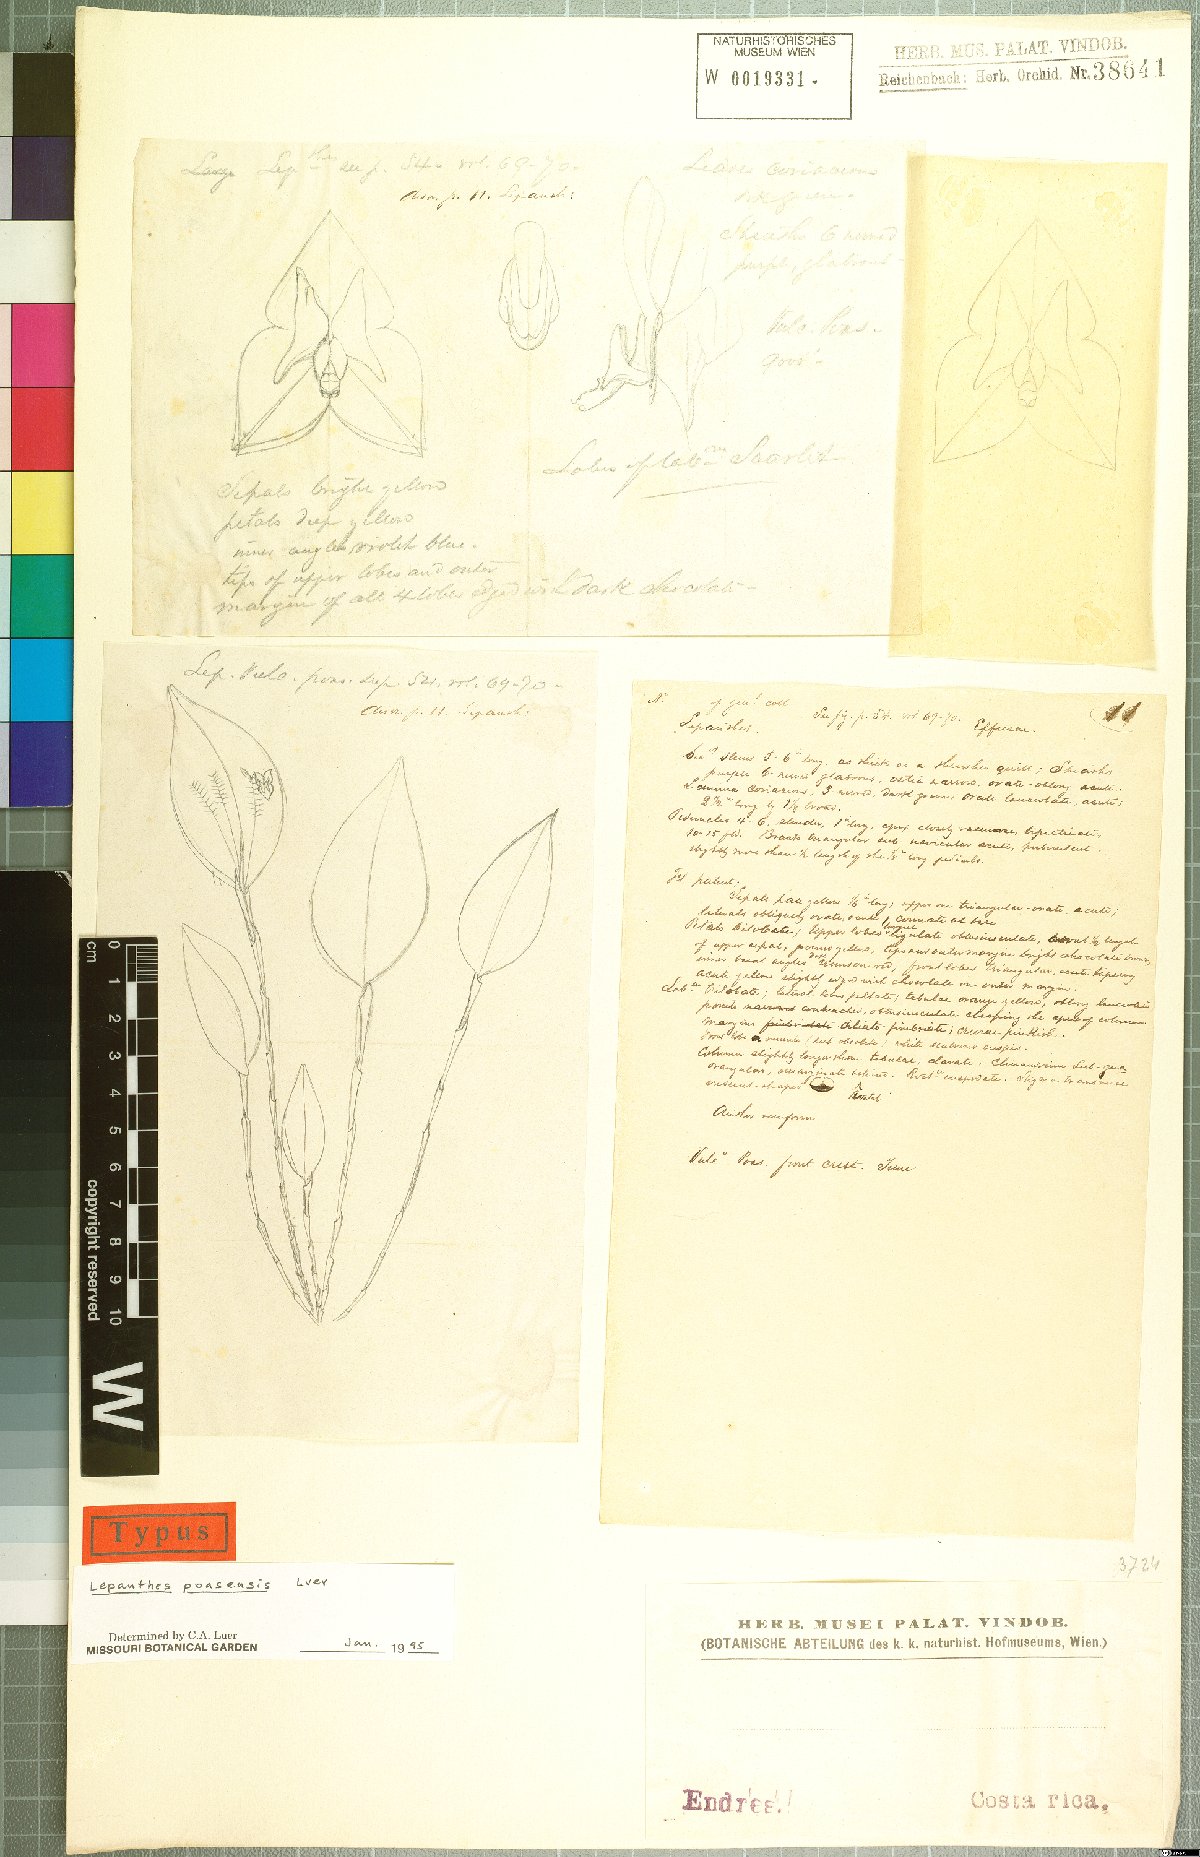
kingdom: Plantae
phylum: Tracheophyta
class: Liliopsida
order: Asparagales
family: Orchidaceae
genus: Lepanthes
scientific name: Lepanthes poasensis
